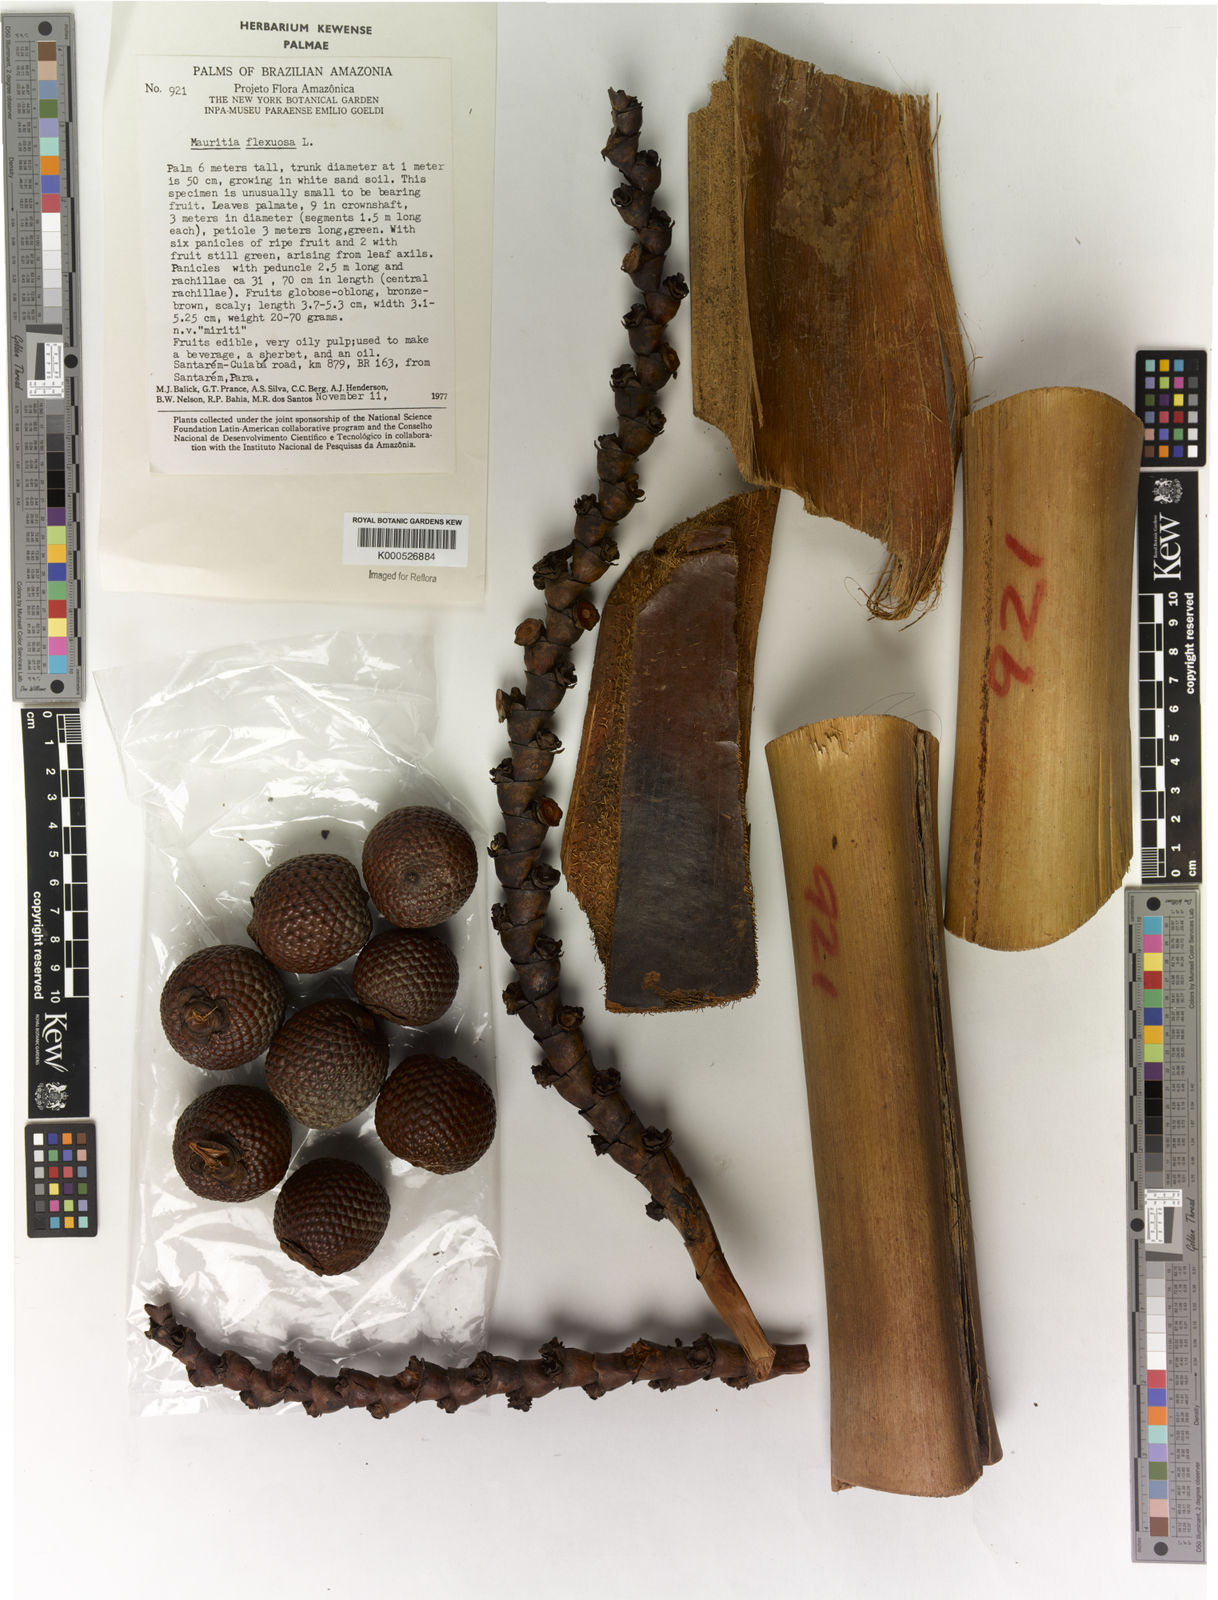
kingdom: Plantae
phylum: Tracheophyta
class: Liliopsida
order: Arecales
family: Arecaceae
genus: Mauritia
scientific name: Mauritia flexuosa
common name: Tree-of-life
